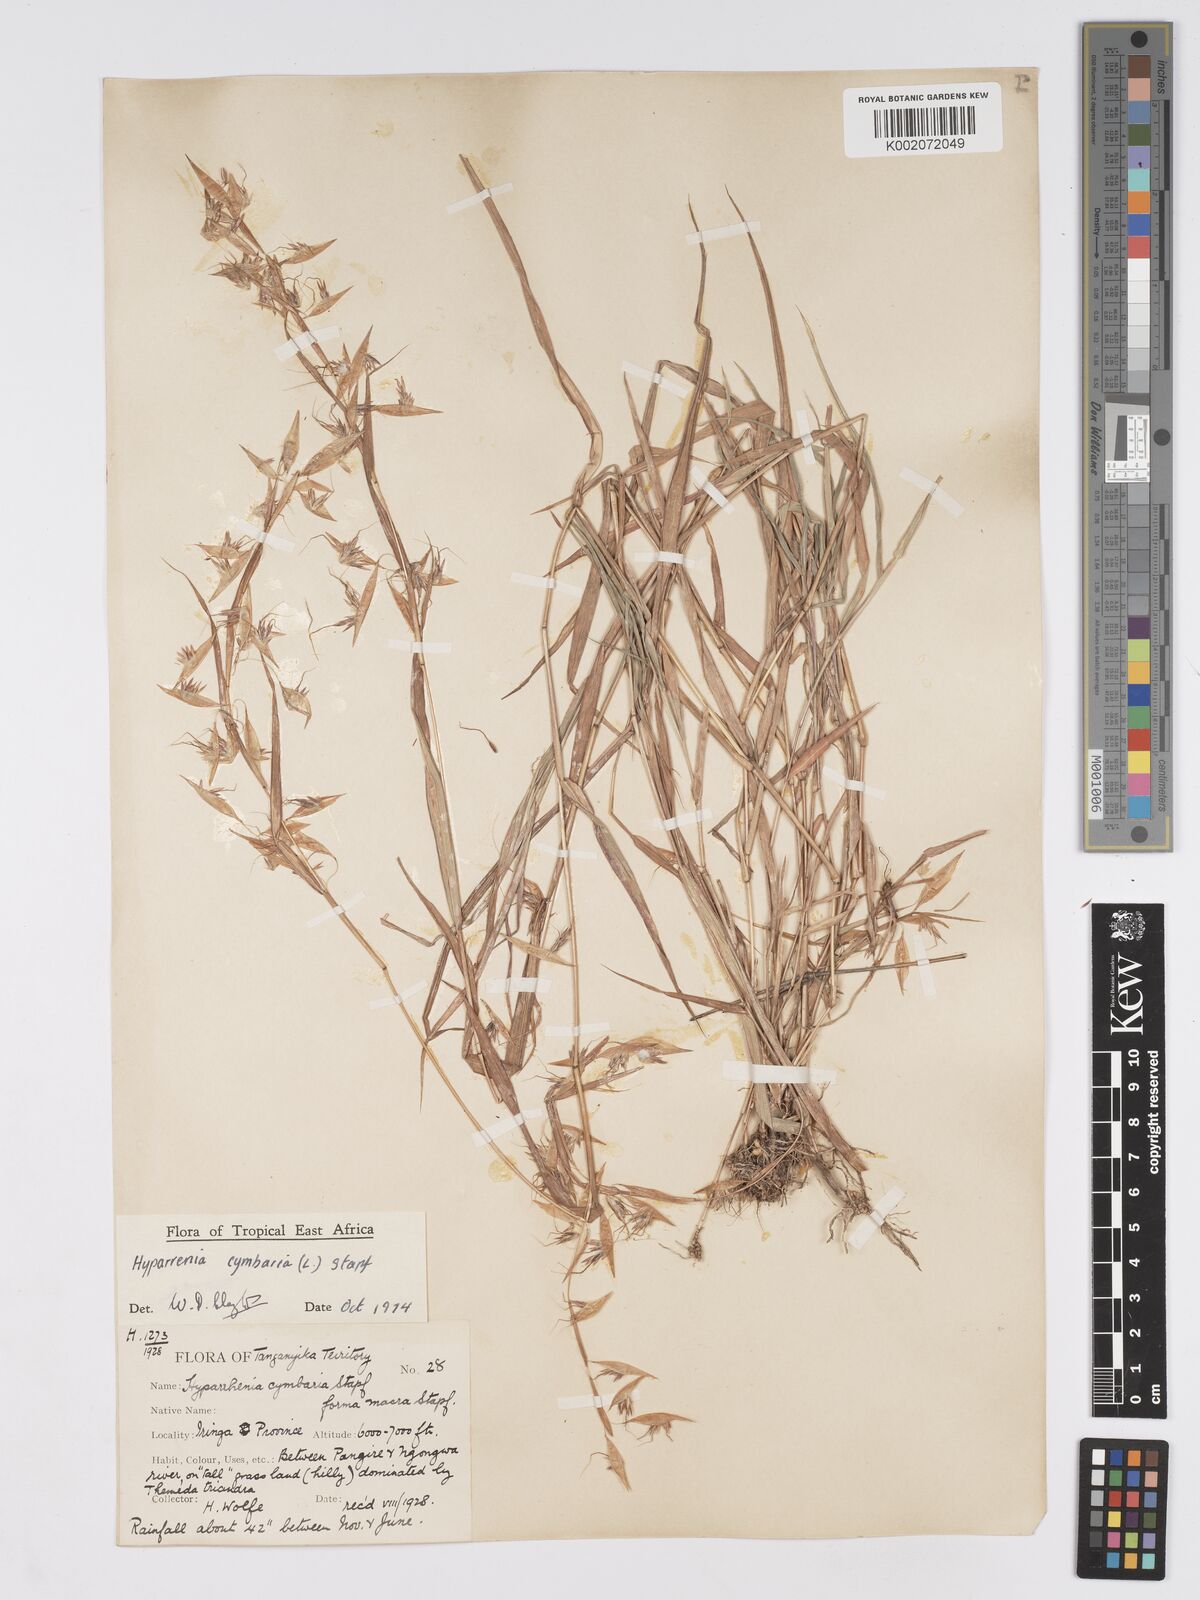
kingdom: Plantae
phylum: Tracheophyta
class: Liliopsida
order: Poales
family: Poaceae
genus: Hyparrhenia
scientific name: Hyparrhenia cymbaria
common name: Boat thatching grass
